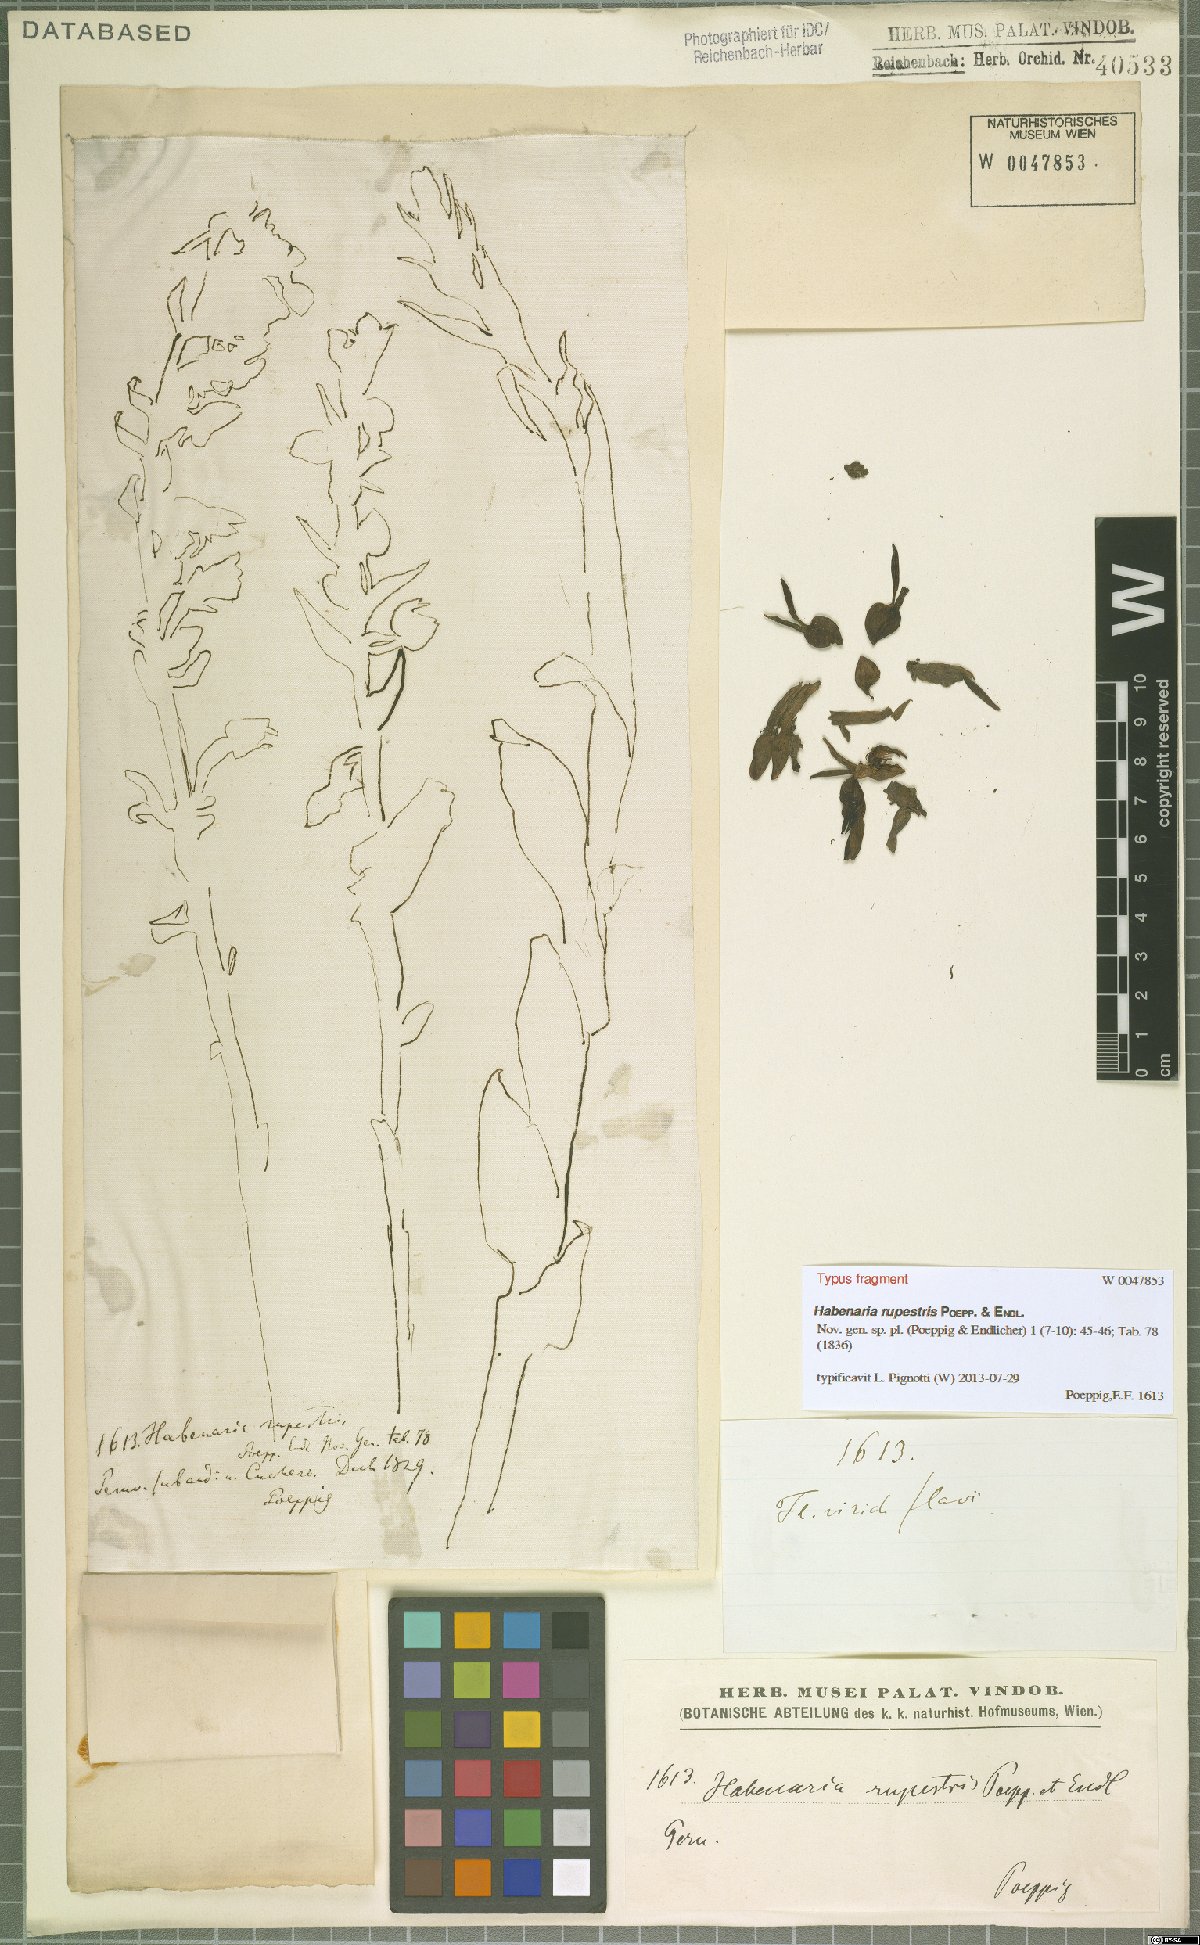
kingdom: Plantae
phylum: Tracheophyta
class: Liliopsida
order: Asparagales
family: Orchidaceae
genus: Habenaria
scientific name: Habenaria rupestris
